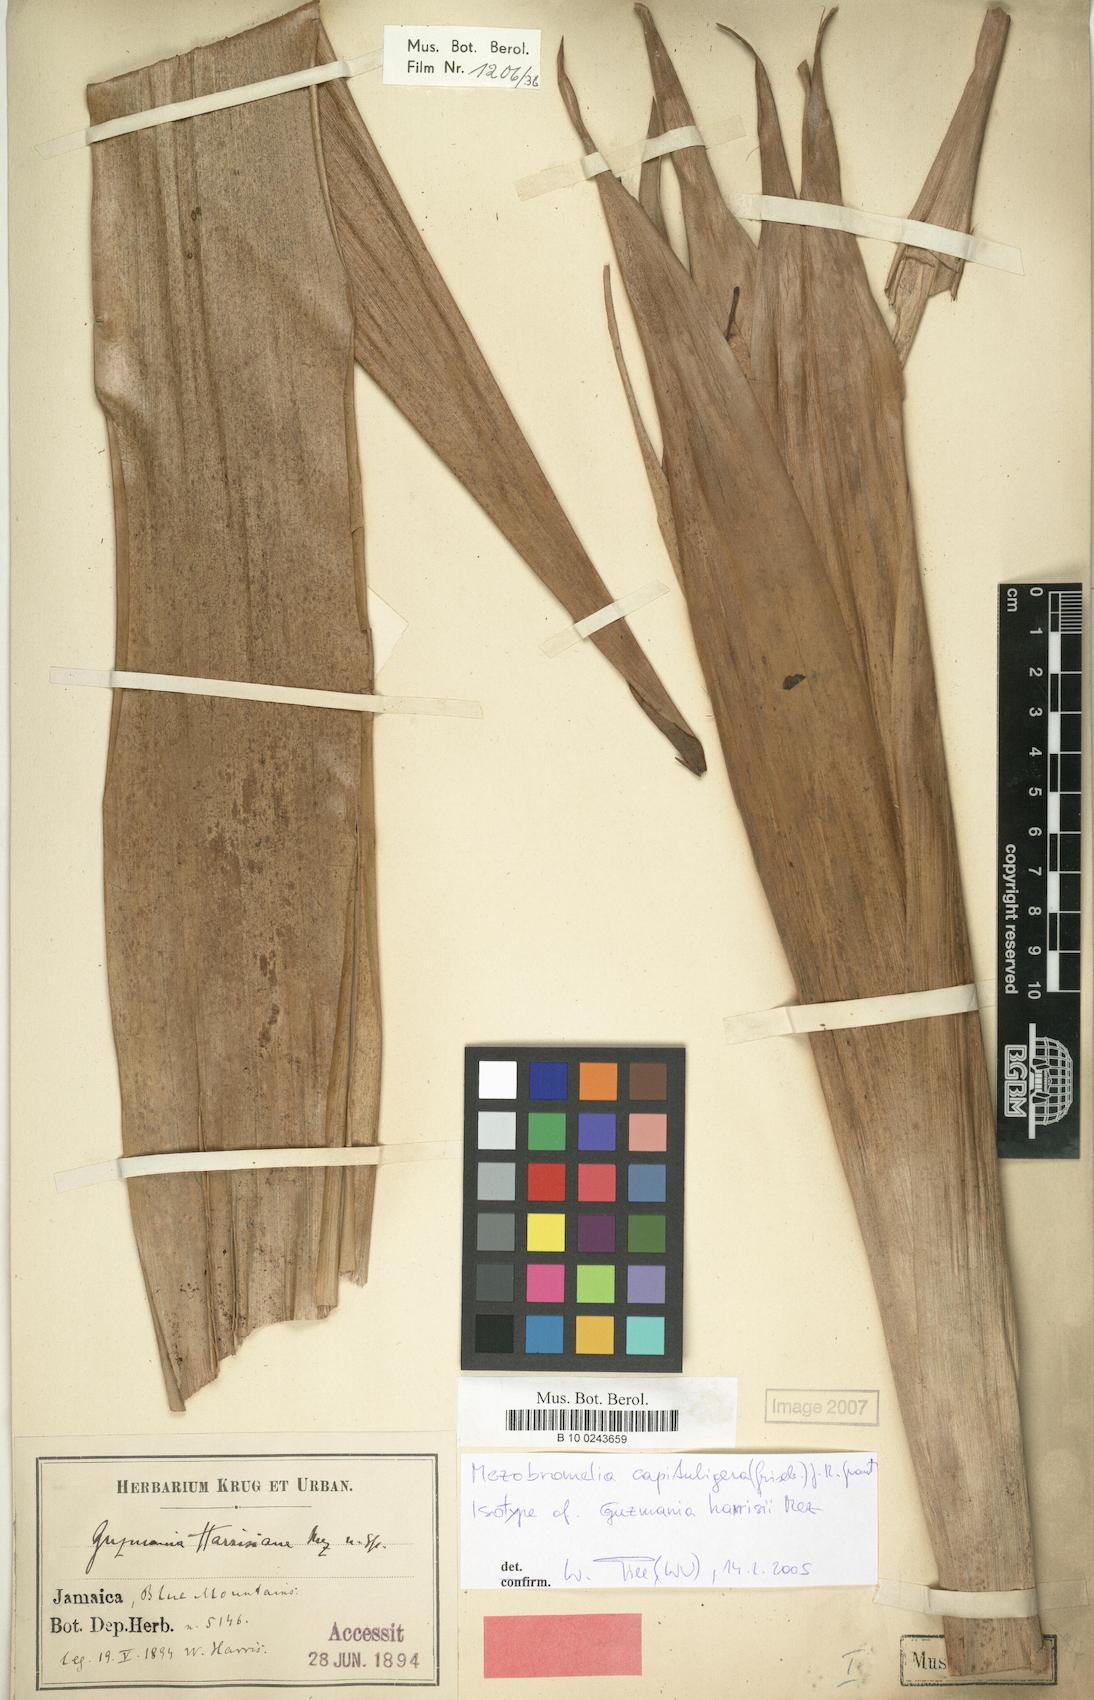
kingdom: Plantae
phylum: Tracheophyta
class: Liliopsida
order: Poales
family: Bromeliaceae
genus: Cipuropsis
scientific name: Cipuropsis capituligera
